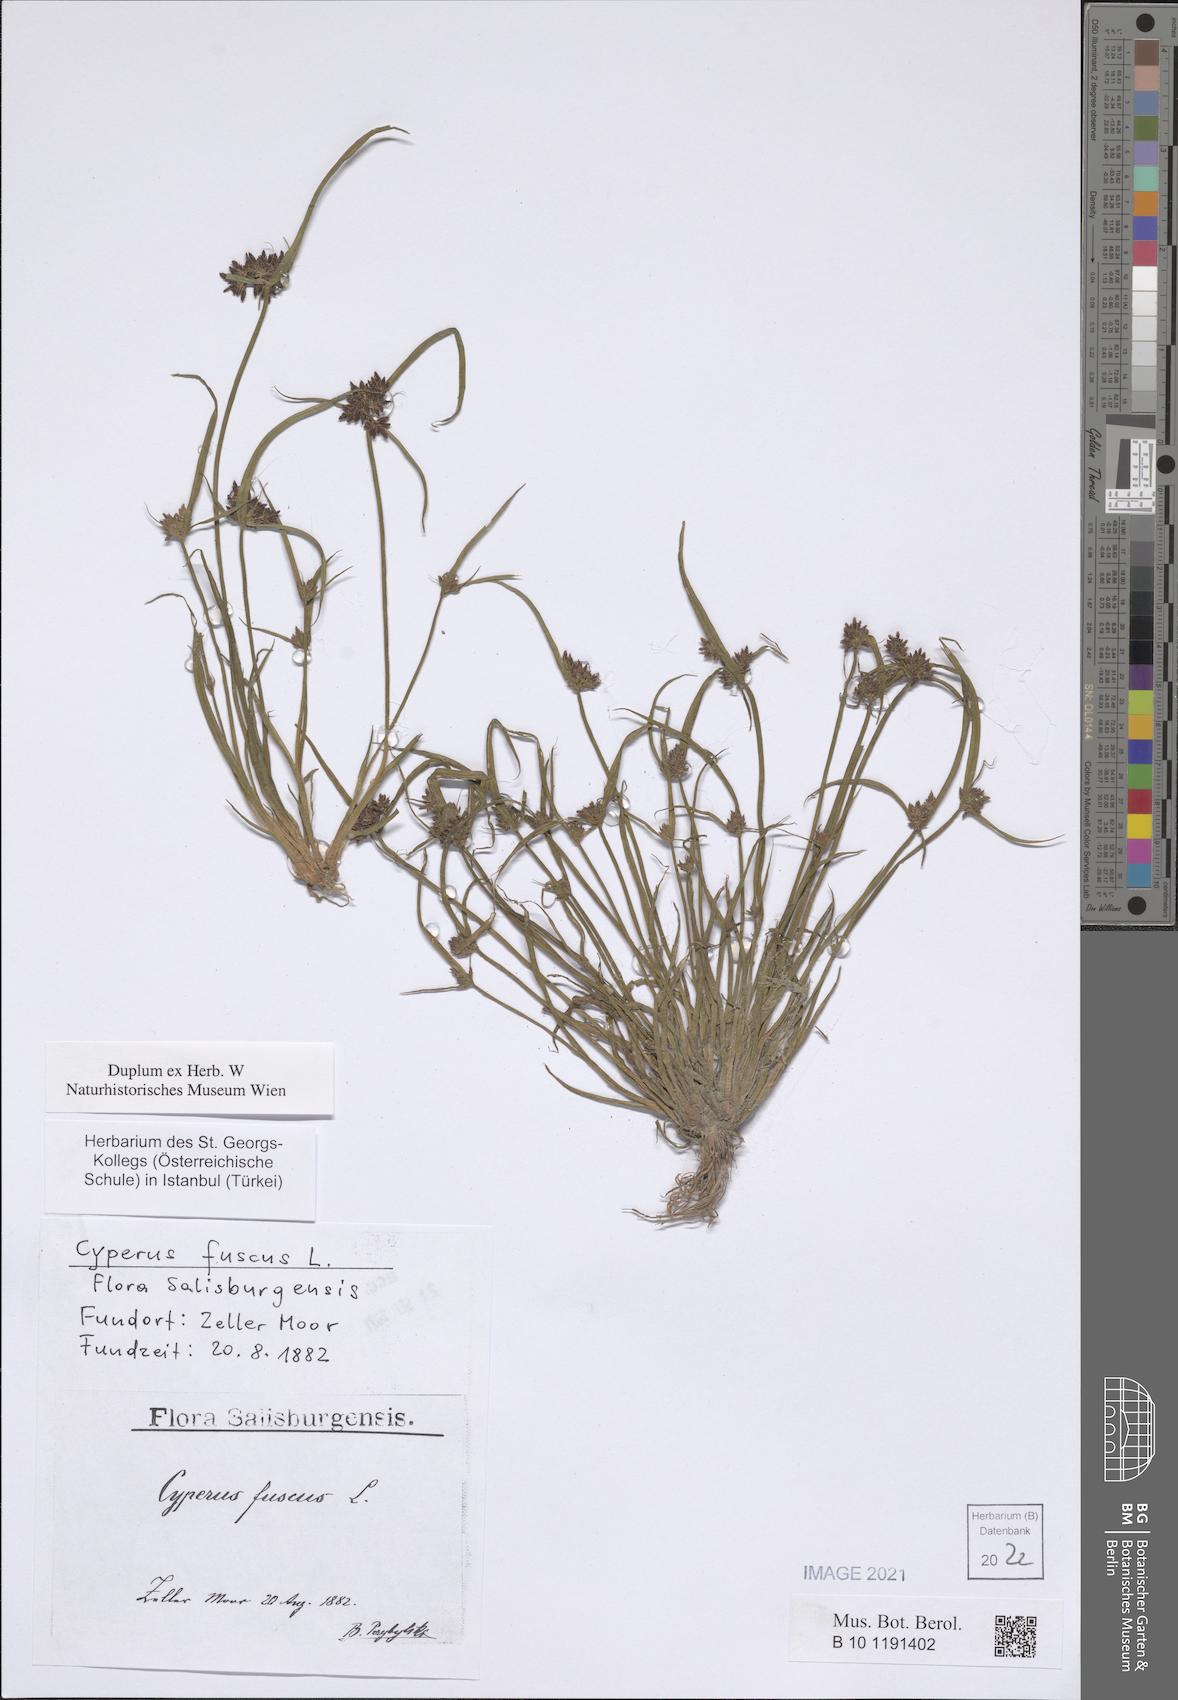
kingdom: Plantae
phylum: Tracheophyta
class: Liliopsida
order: Poales
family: Cyperaceae
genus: Cyperus
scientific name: Cyperus fuscus
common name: Brown galingale
